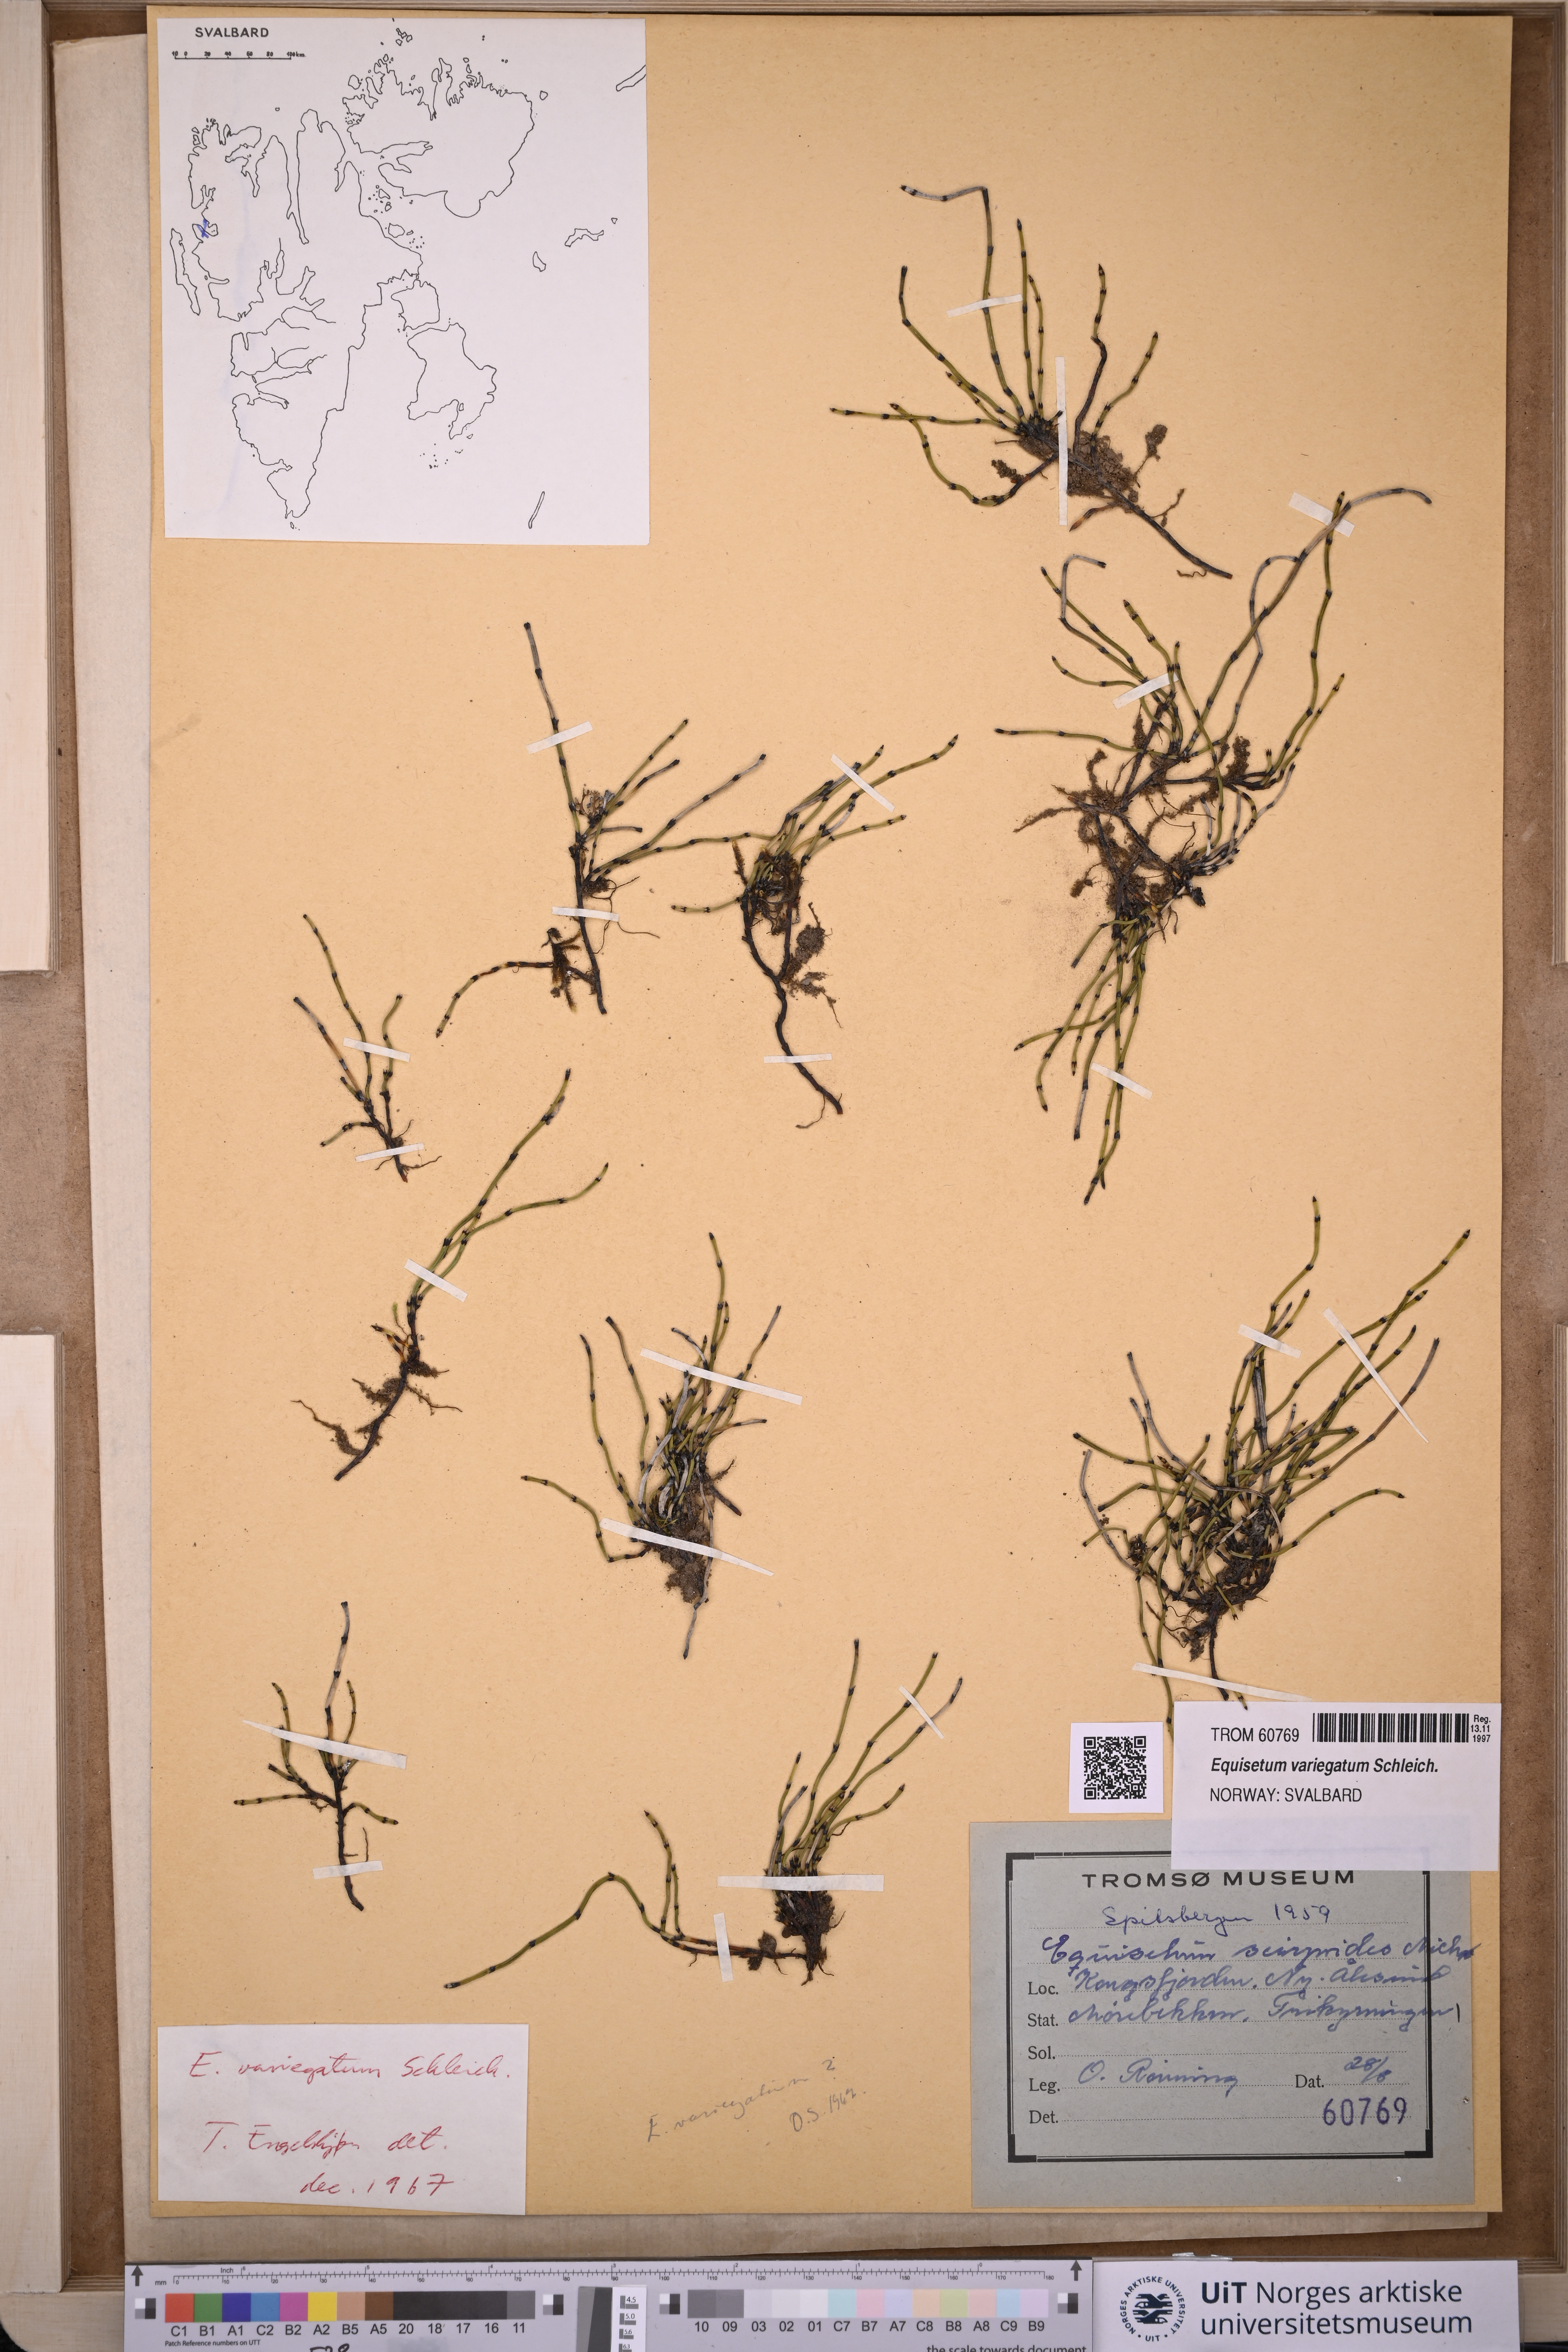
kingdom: Plantae
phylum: Tracheophyta
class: Polypodiopsida
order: Equisetales
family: Equisetaceae
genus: Equisetum
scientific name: Equisetum variegatum
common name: Variegated horsetail
